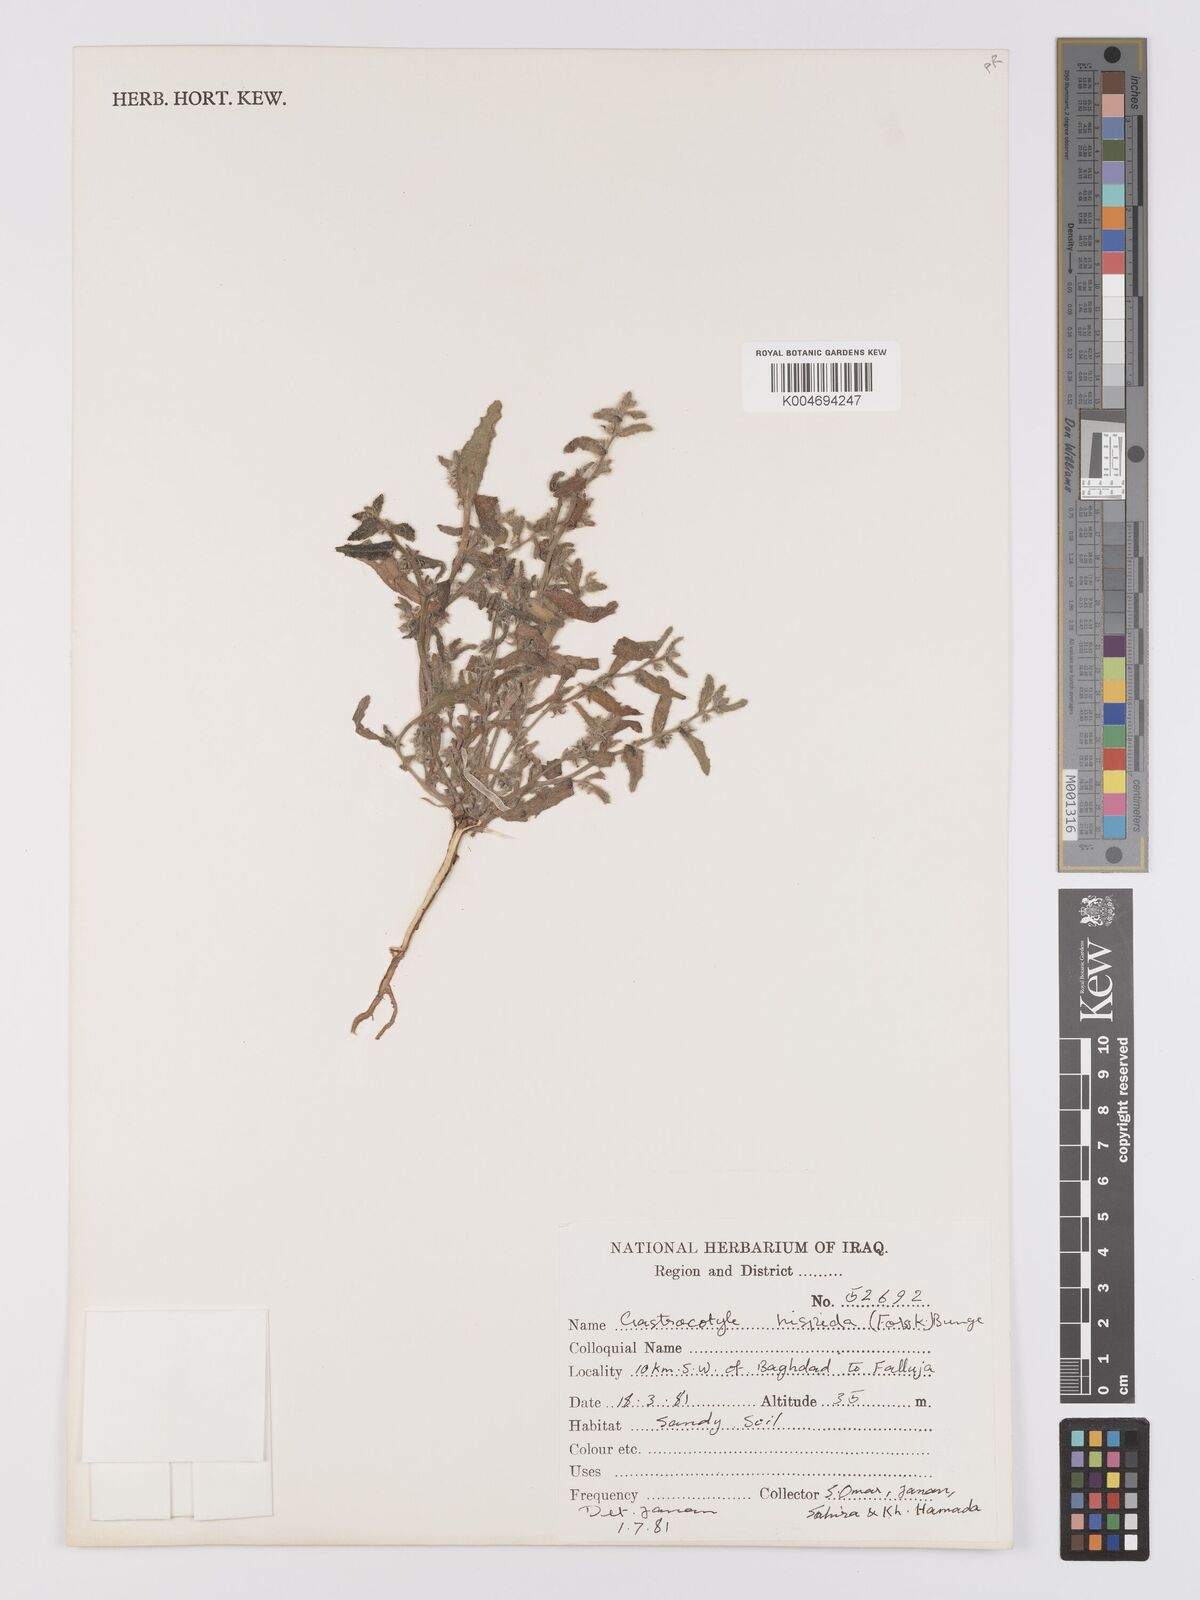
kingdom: Plantae
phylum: Tracheophyta
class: Magnoliopsida
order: Boraginales
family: Boraginaceae
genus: Gastrocotyle
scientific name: Gastrocotyle hispida
